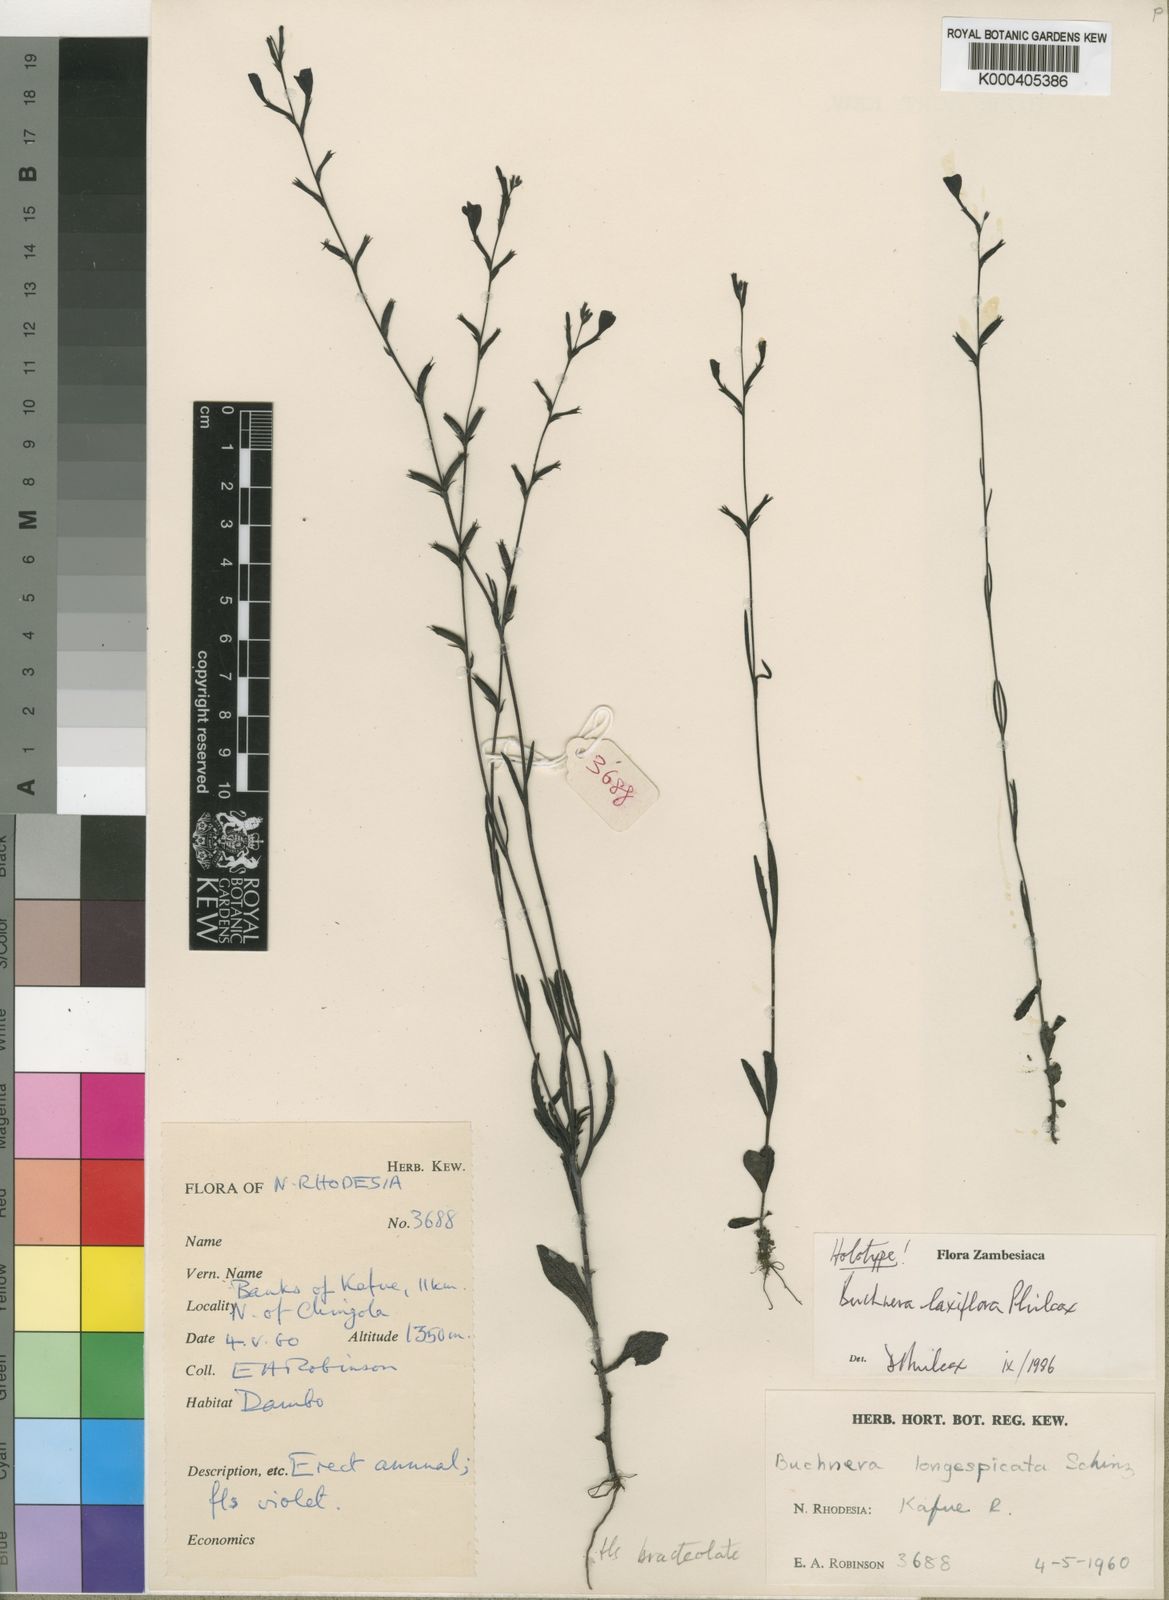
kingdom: Plantae
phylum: Tracheophyta
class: Magnoliopsida
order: Lamiales
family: Orobanchaceae
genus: Buchnera
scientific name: Buchnera laxiflora
